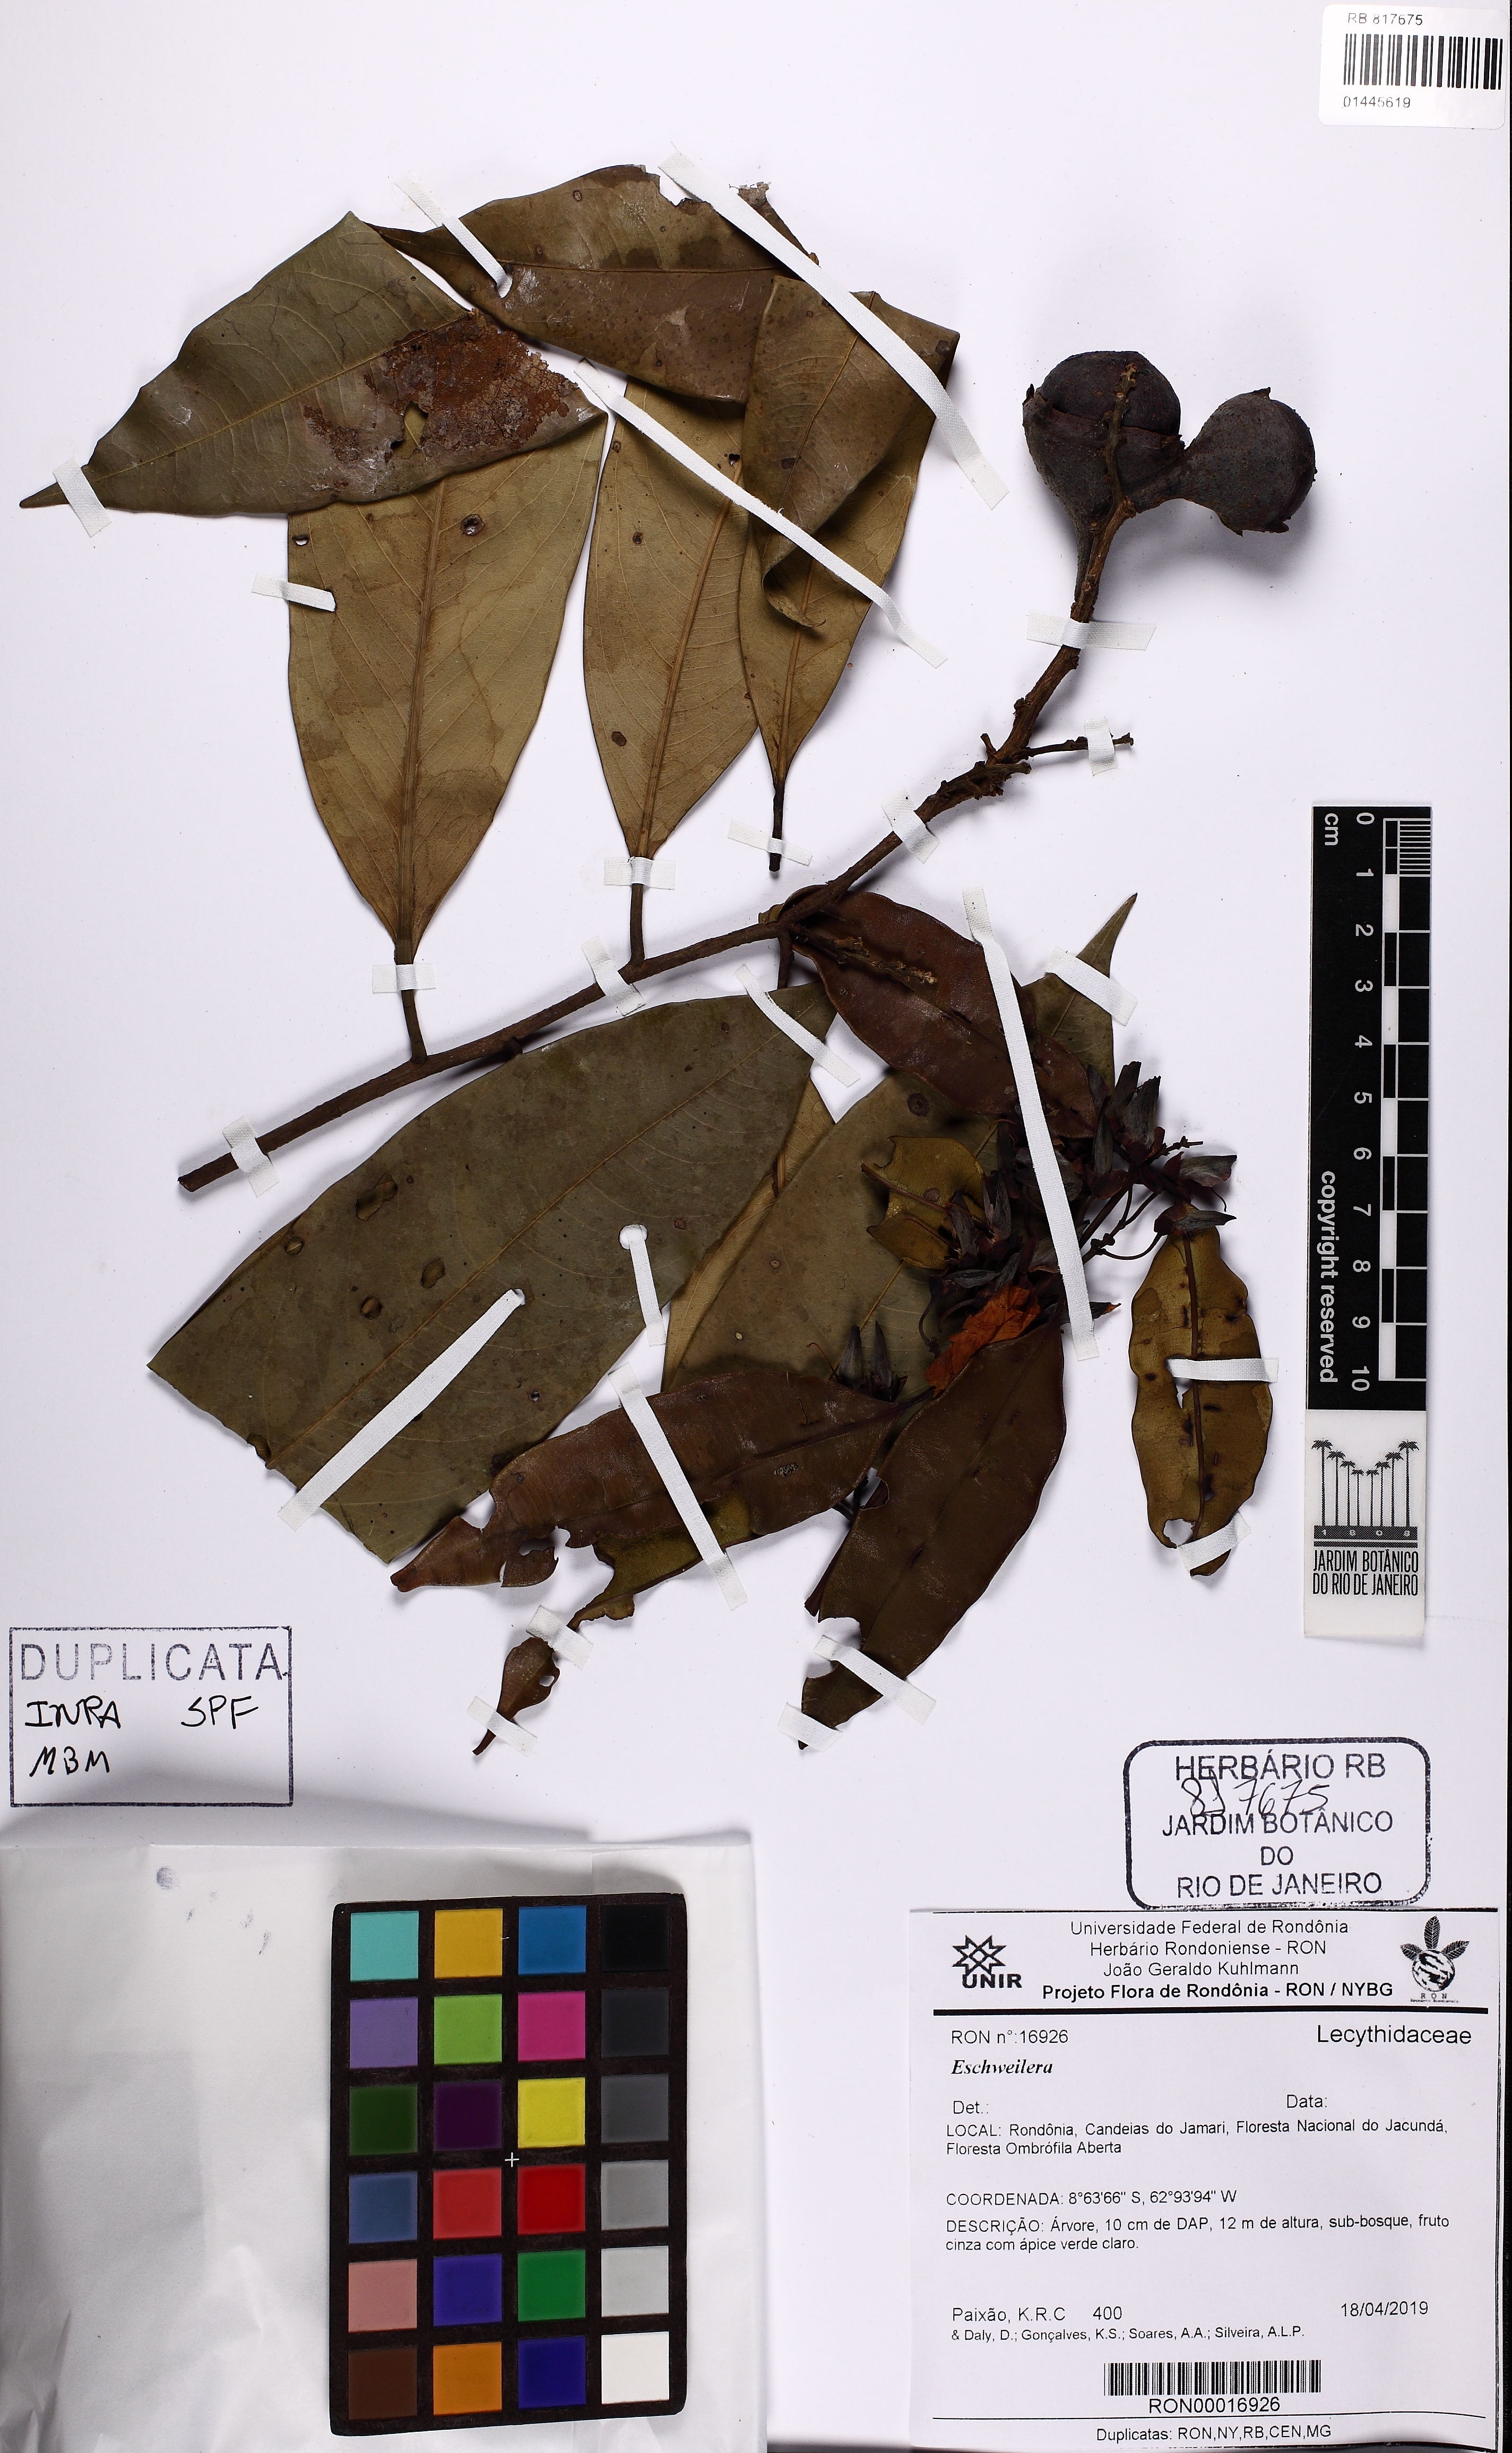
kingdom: Plantae
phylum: Tracheophyta
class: Magnoliopsida
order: Ericales
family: Lecythidaceae
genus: Eschweilera
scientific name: Eschweilera
